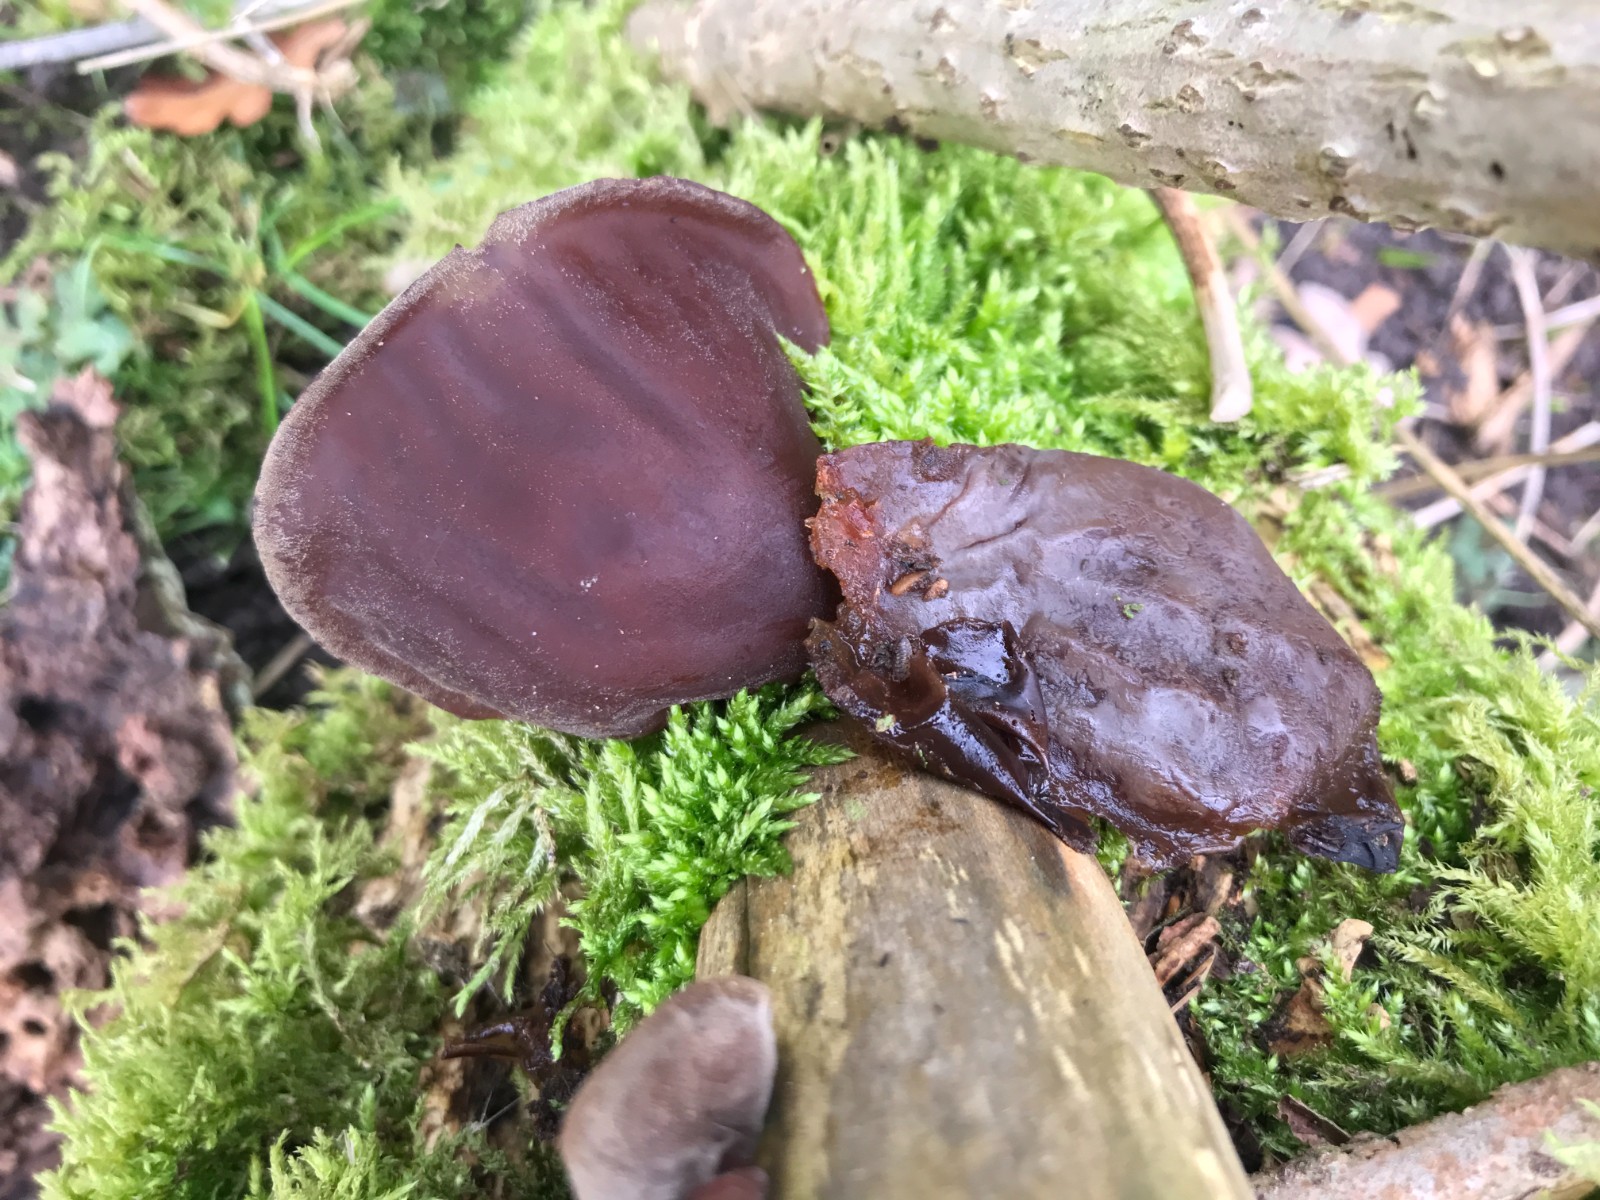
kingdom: Fungi
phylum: Basidiomycota
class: Agaricomycetes
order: Auriculariales
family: Auriculariaceae
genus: Auricularia
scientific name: Auricularia auricula-judae
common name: almindelig judasøre
